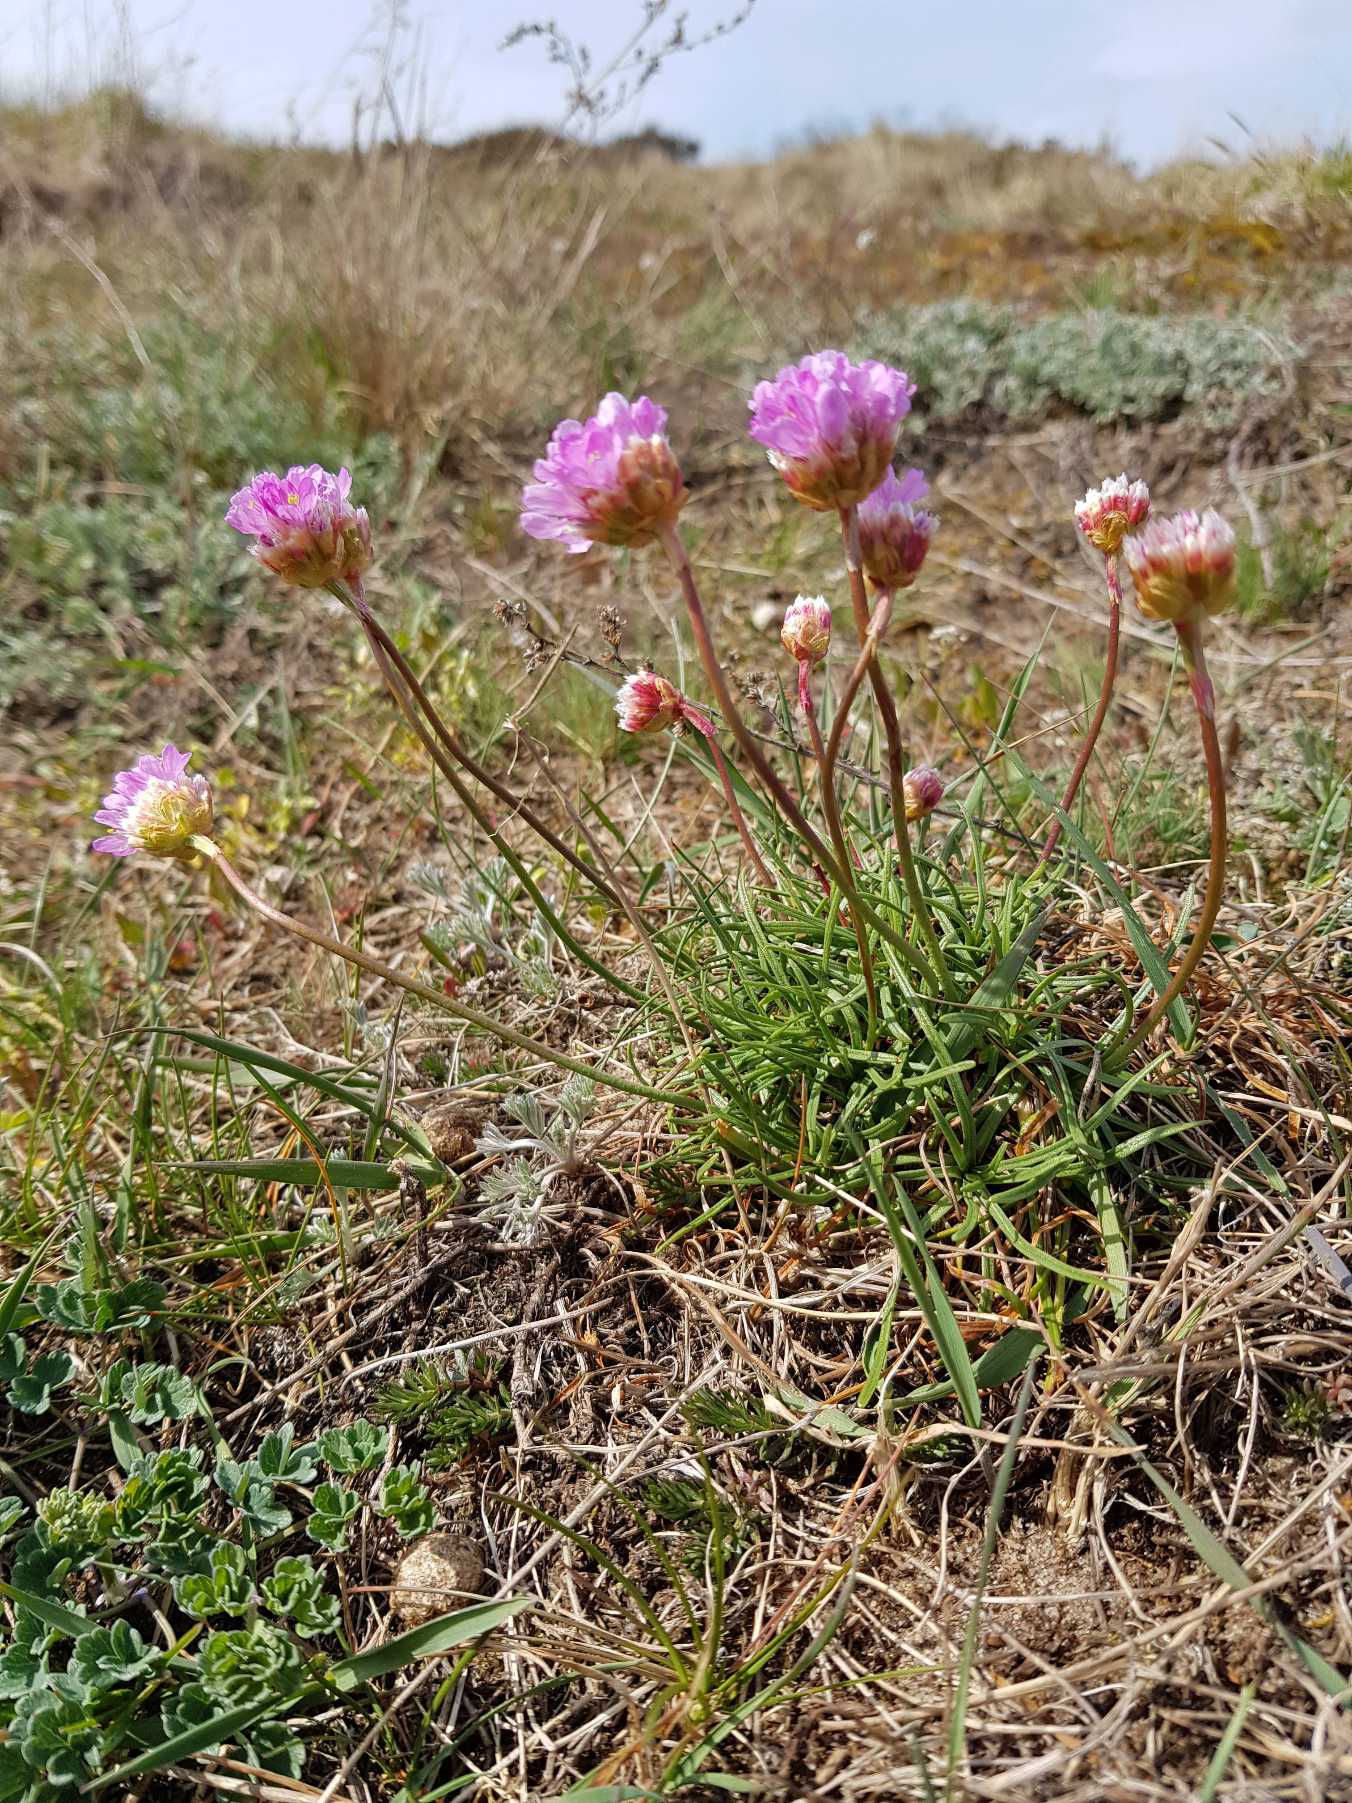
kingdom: Plantae
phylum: Tracheophyta
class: Magnoliopsida
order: Caryophyllales
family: Plumbaginaceae
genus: Armeria
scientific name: Armeria maritima
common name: Engelskgræs
